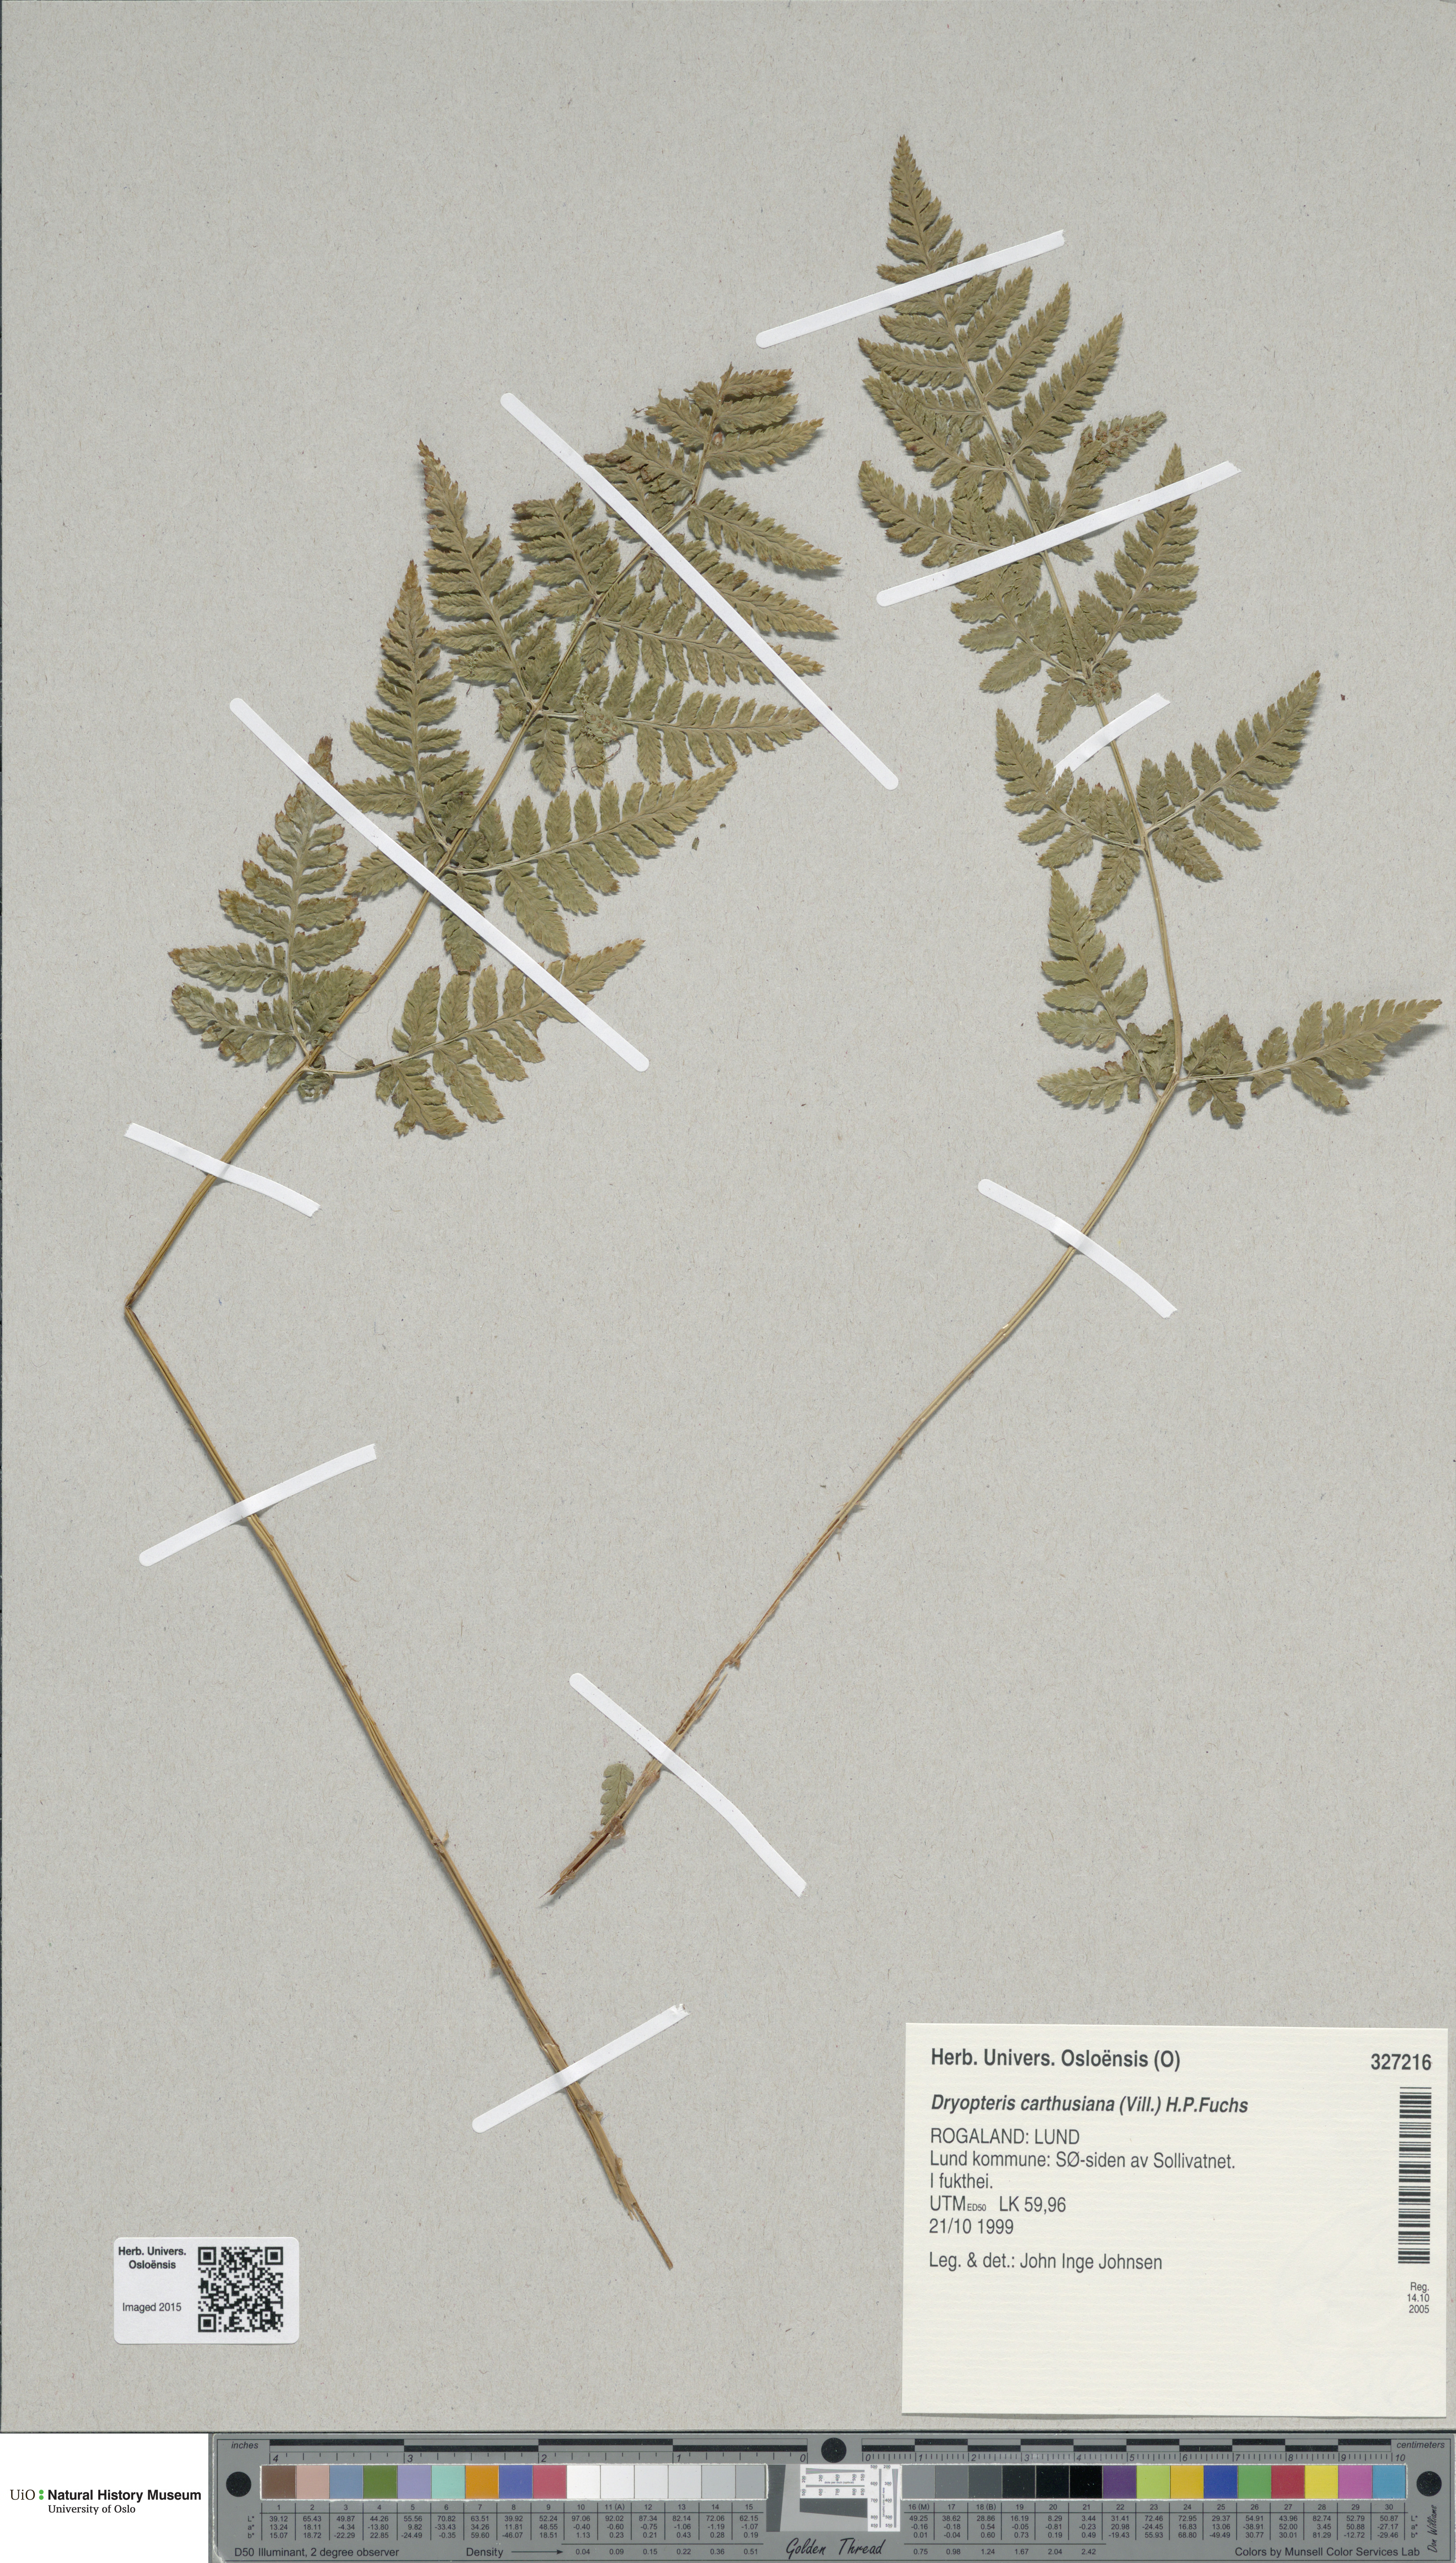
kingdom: Plantae
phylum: Tracheophyta
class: Polypodiopsida
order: Polypodiales
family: Dryopteridaceae
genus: Dryopteris
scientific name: Dryopteris carthusiana
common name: Narrow buckler-fern
